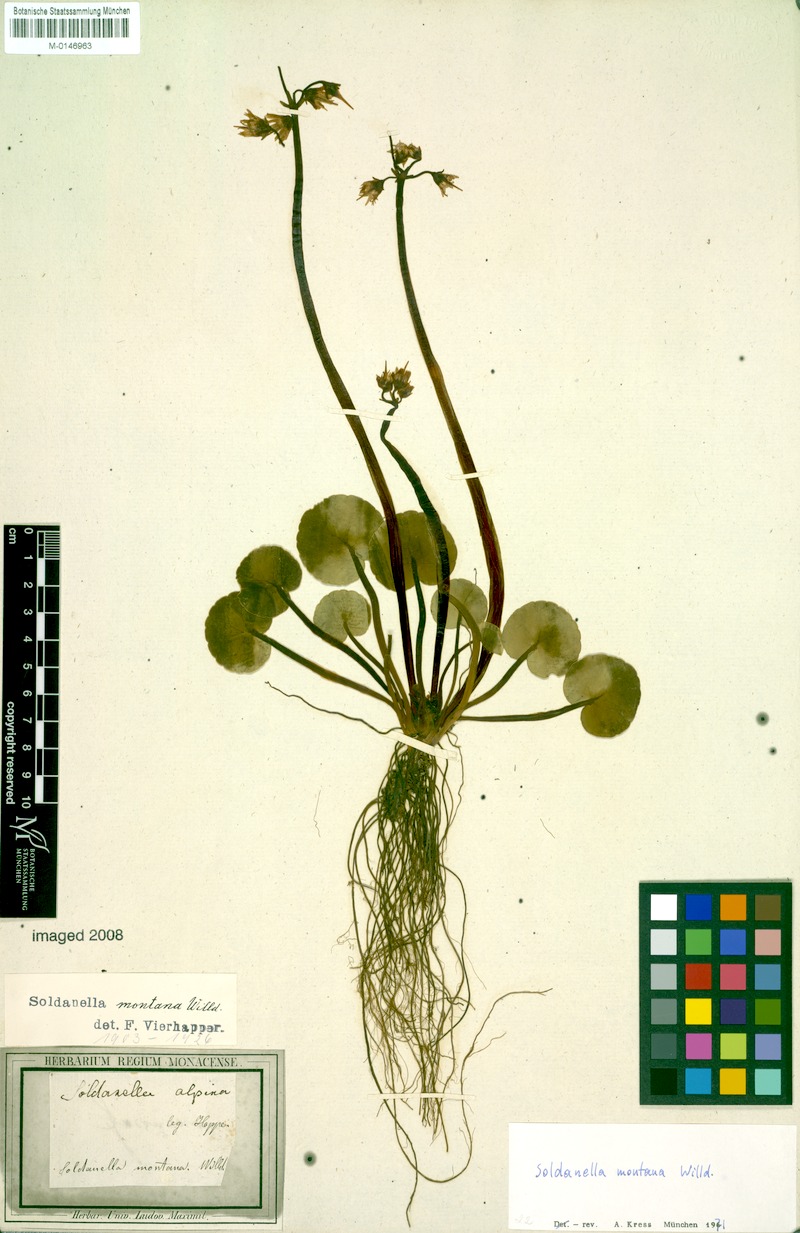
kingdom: Plantae
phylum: Tracheophyta
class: Magnoliopsida
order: Ericales
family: Primulaceae
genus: Soldanella
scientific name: Soldanella montana
